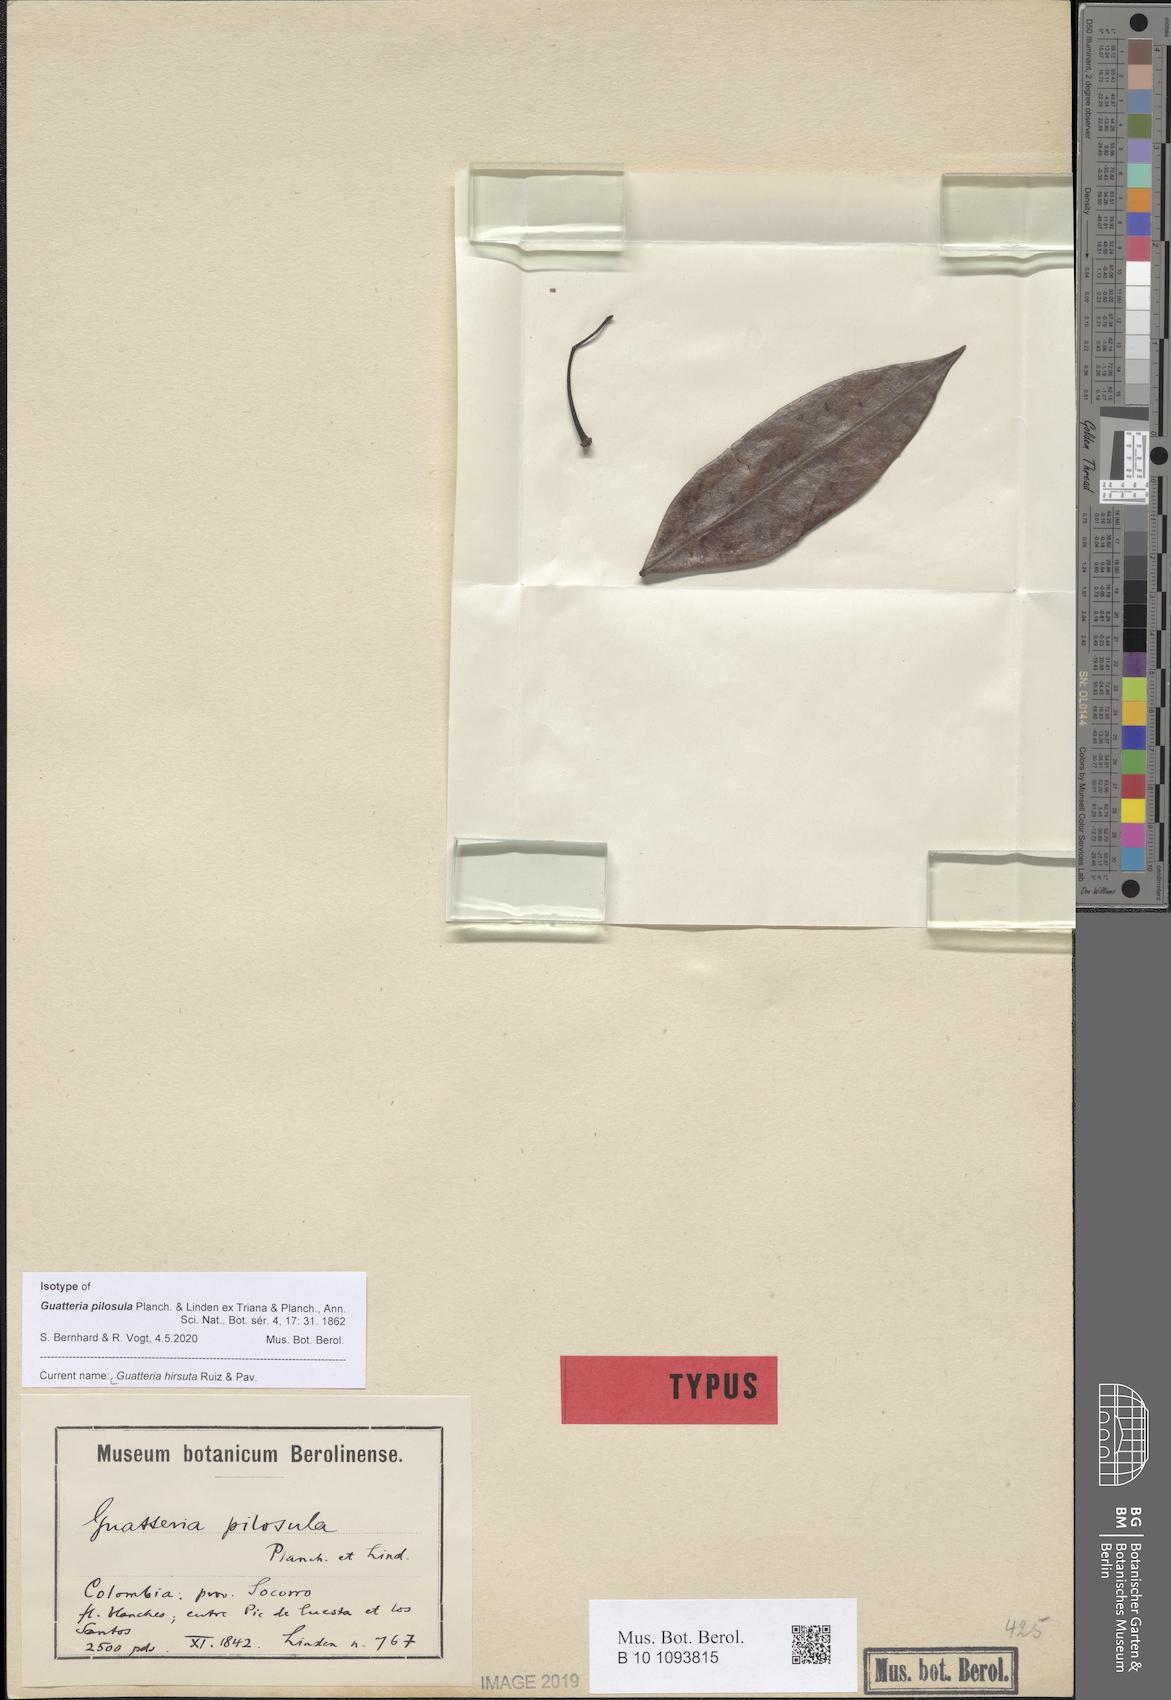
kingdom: Plantae
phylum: Tracheophyta
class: Magnoliopsida
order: Magnoliales
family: Annonaceae
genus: Guatteria
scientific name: Guatteria hirsuta
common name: Laurel
